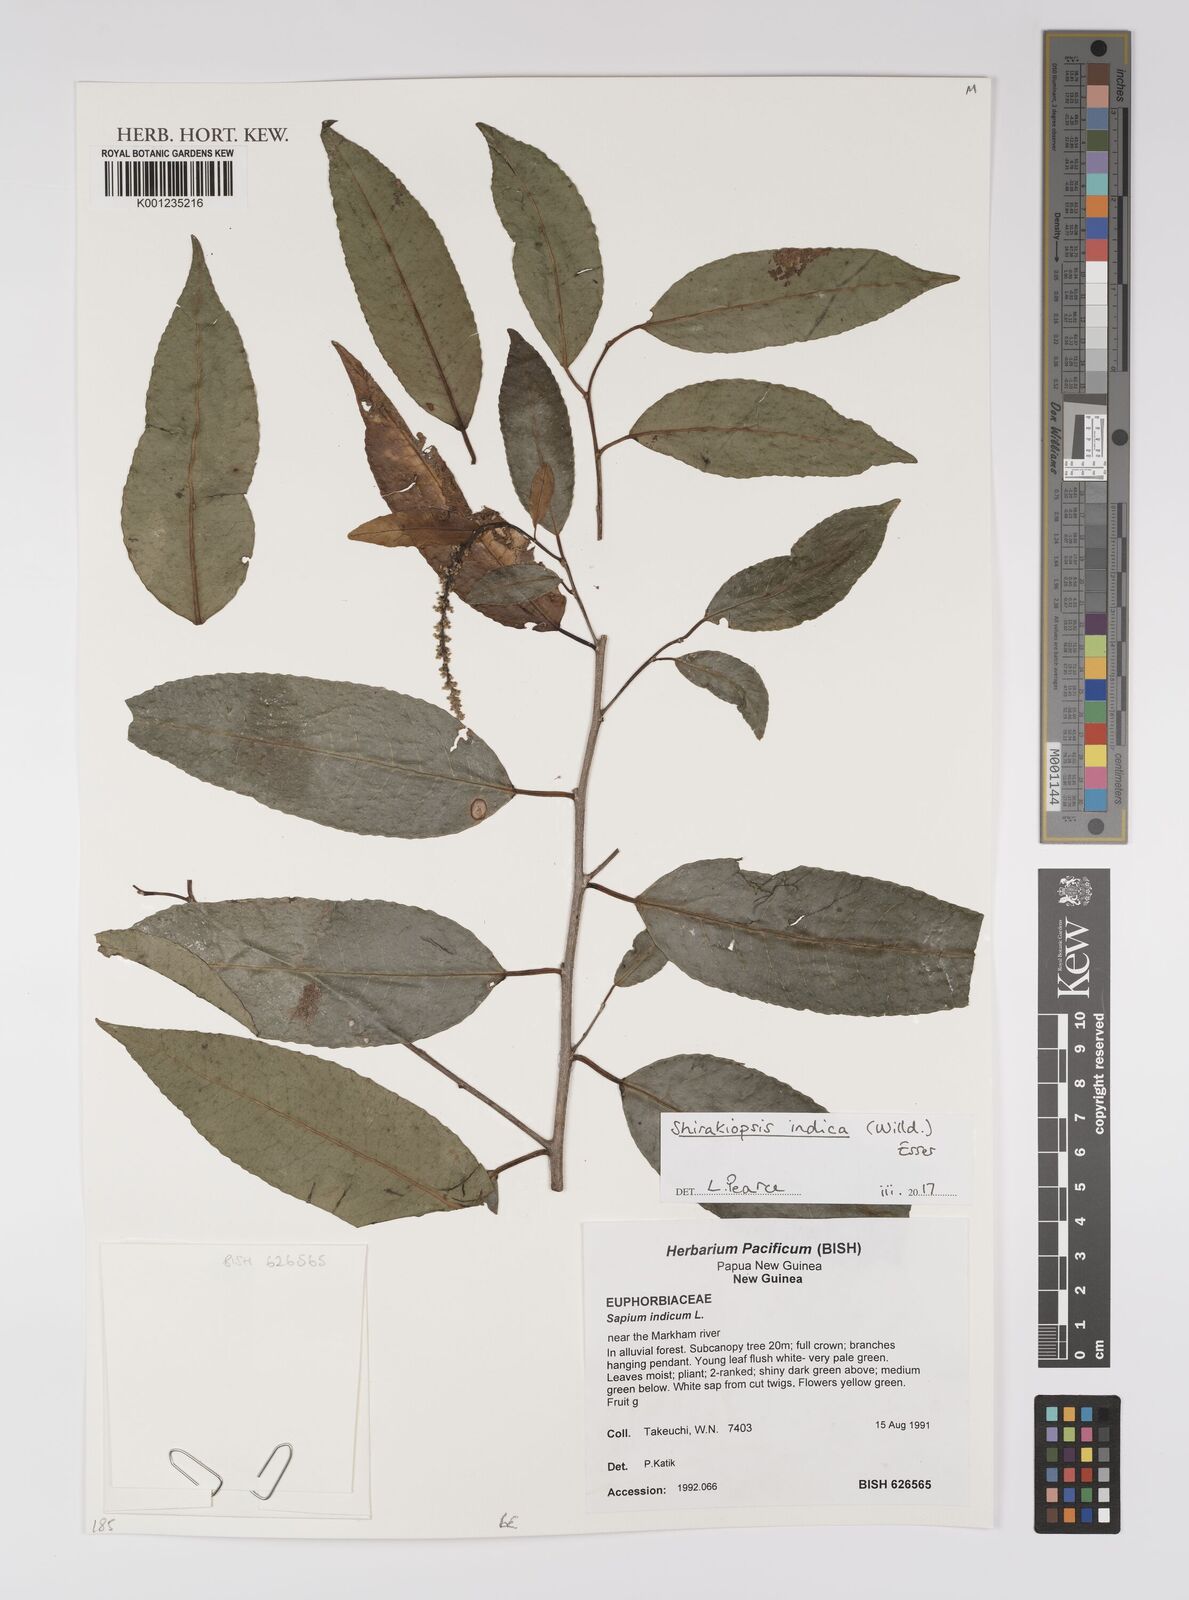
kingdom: Plantae
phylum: Tracheophyta
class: Magnoliopsida
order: Malpighiales
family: Euphorbiaceae
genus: Shirakiopsis
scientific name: Shirakiopsis indica
